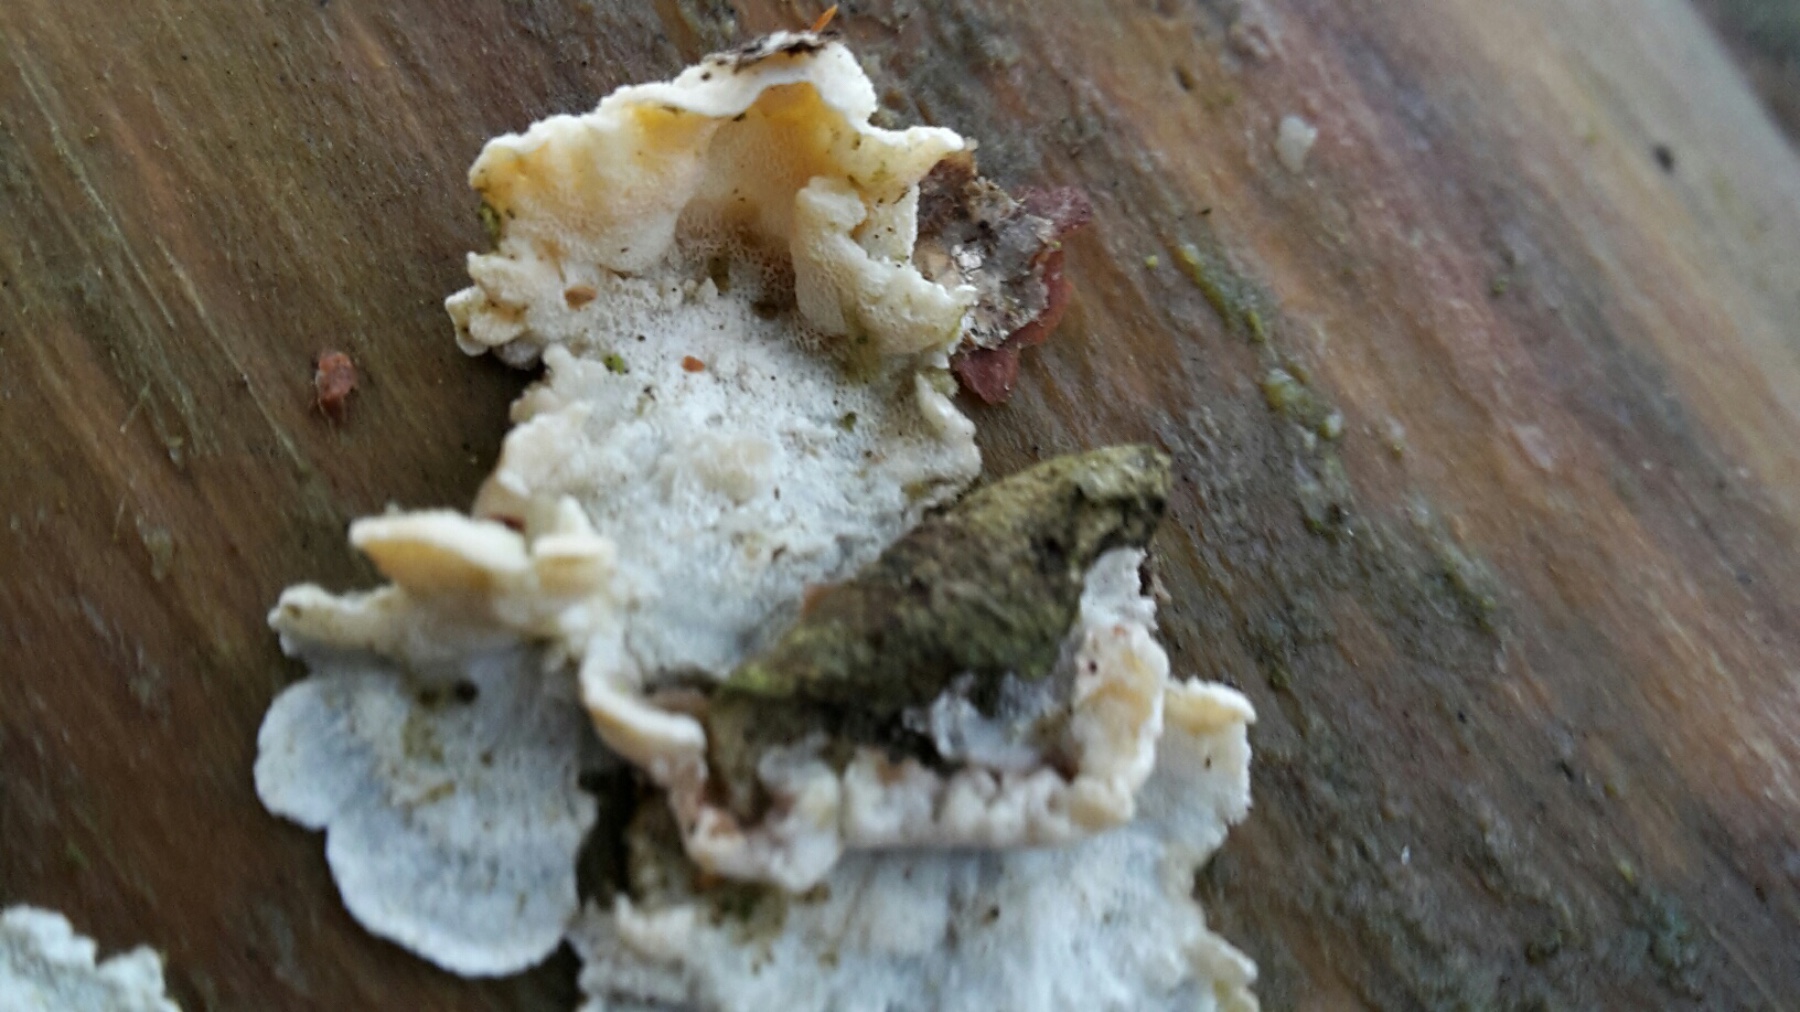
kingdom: Fungi
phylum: Basidiomycota
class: Agaricomycetes
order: Polyporales
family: Incrustoporiaceae
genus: Skeletocutis
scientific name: Skeletocutis amorpha
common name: orange krystalporesvamp
